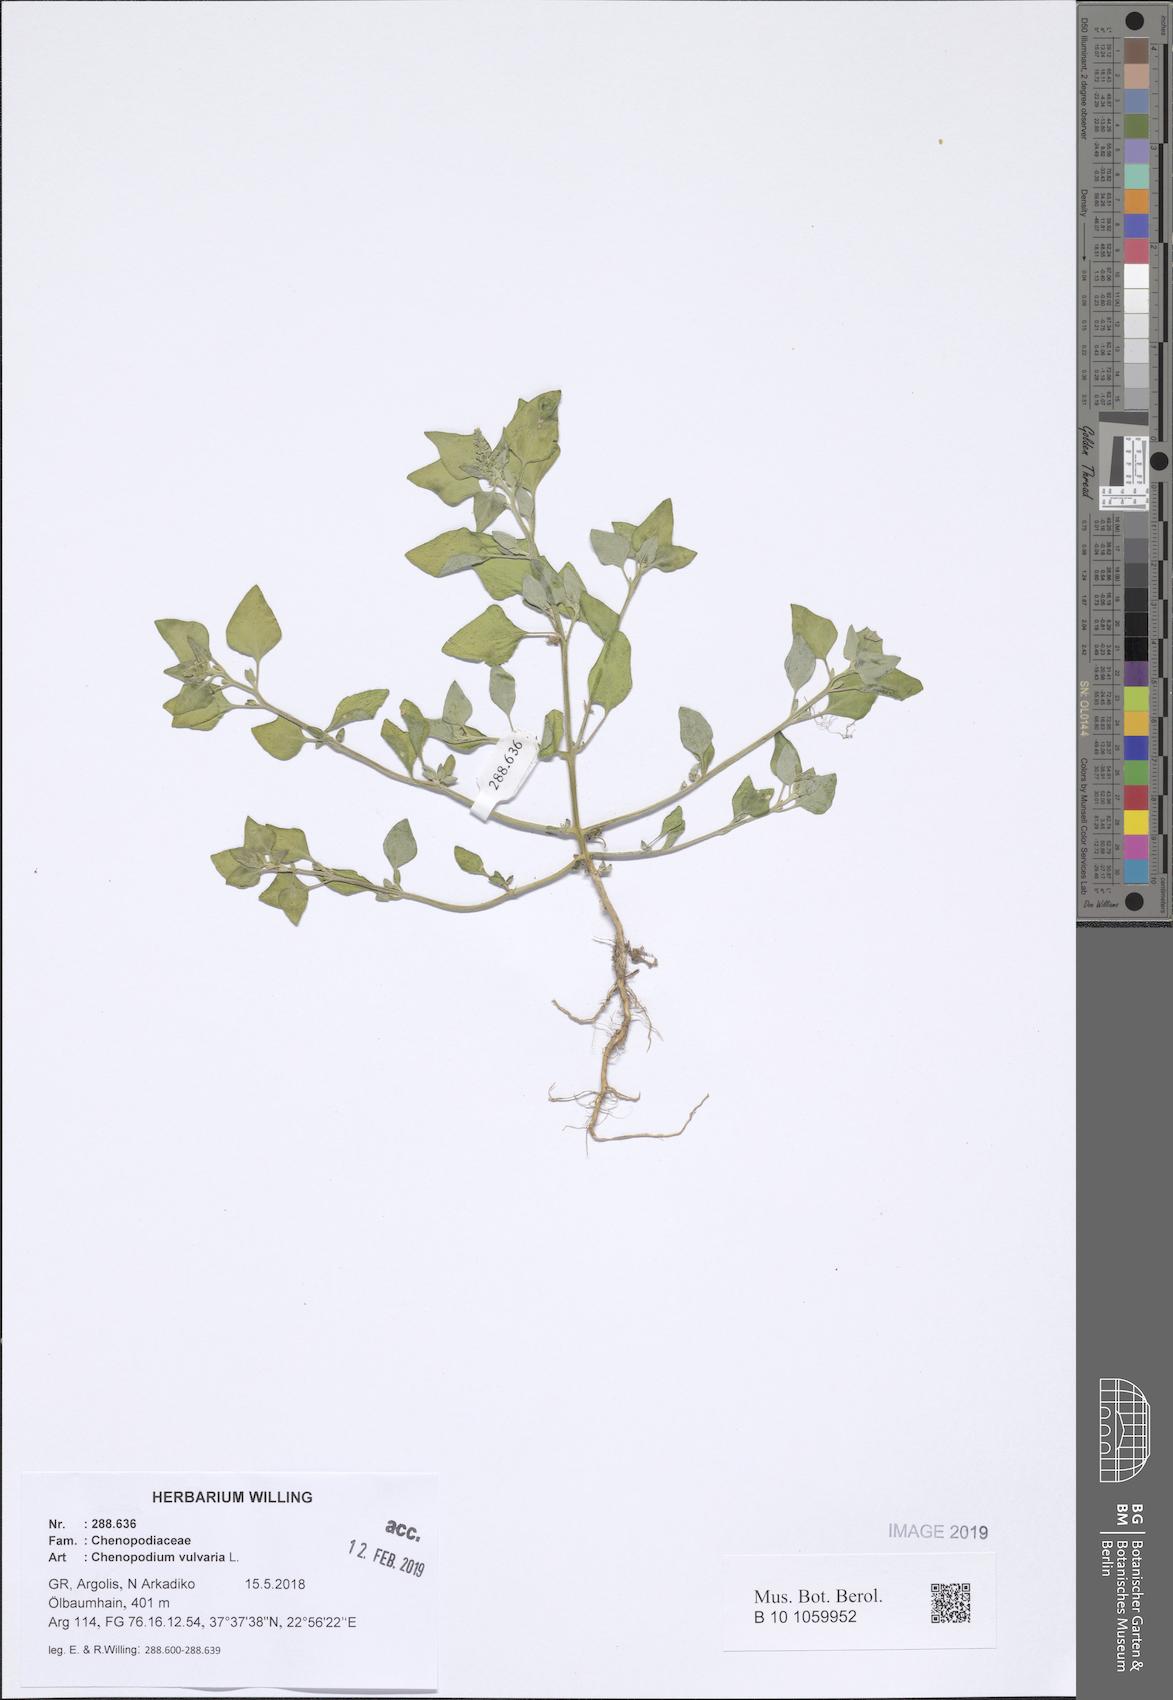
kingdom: Plantae
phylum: Tracheophyta
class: Magnoliopsida
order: Caryophyllales
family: Amaranthaceae
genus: Chenopodium
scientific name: Chenopodium vulvaria
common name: Stinking goosefoot
